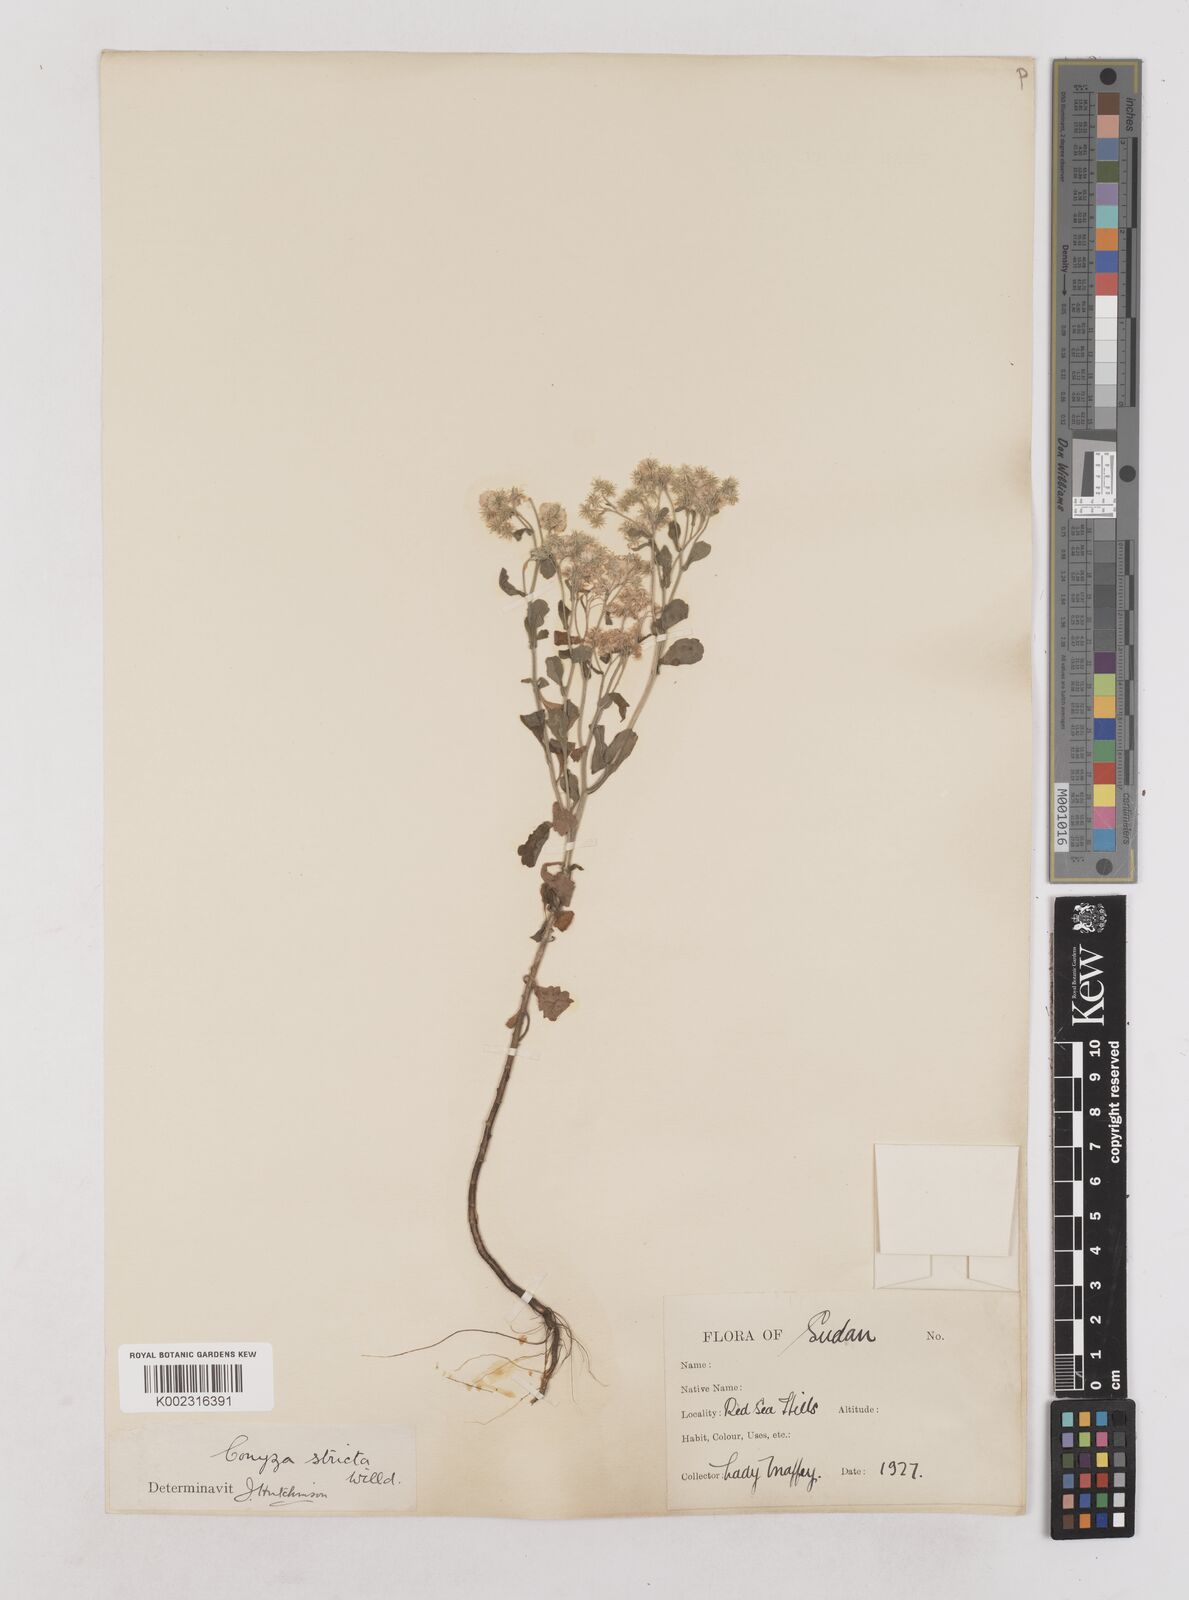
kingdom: Plantae
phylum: Tracheophyta
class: Magnoliopsida
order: Asterales
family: Asteraceae
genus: Nidorella
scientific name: Nidorella triloba
